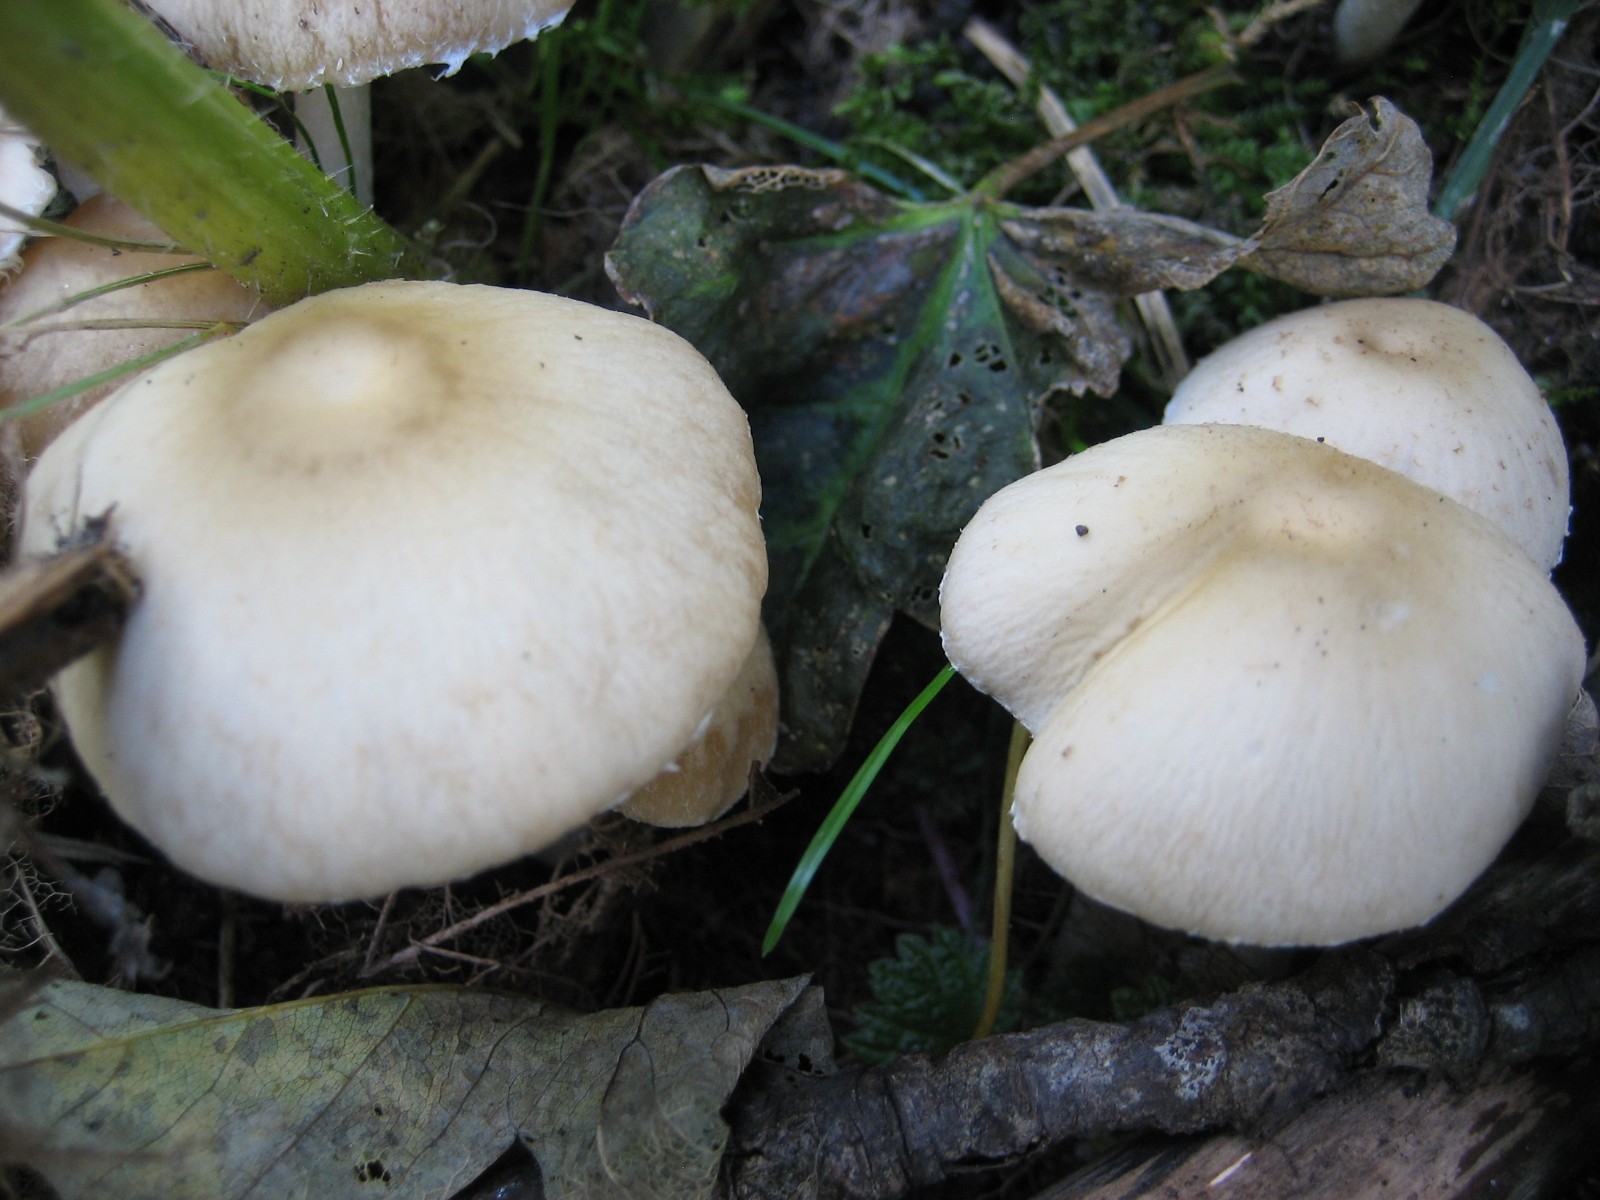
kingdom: Fungi
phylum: Basidiomycota
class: Agaricomycetes
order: Agaricales
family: Psathyrellaceae
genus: Candolleomyces
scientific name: Candolleomyces candolleanus
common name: Candolles mørkhat
